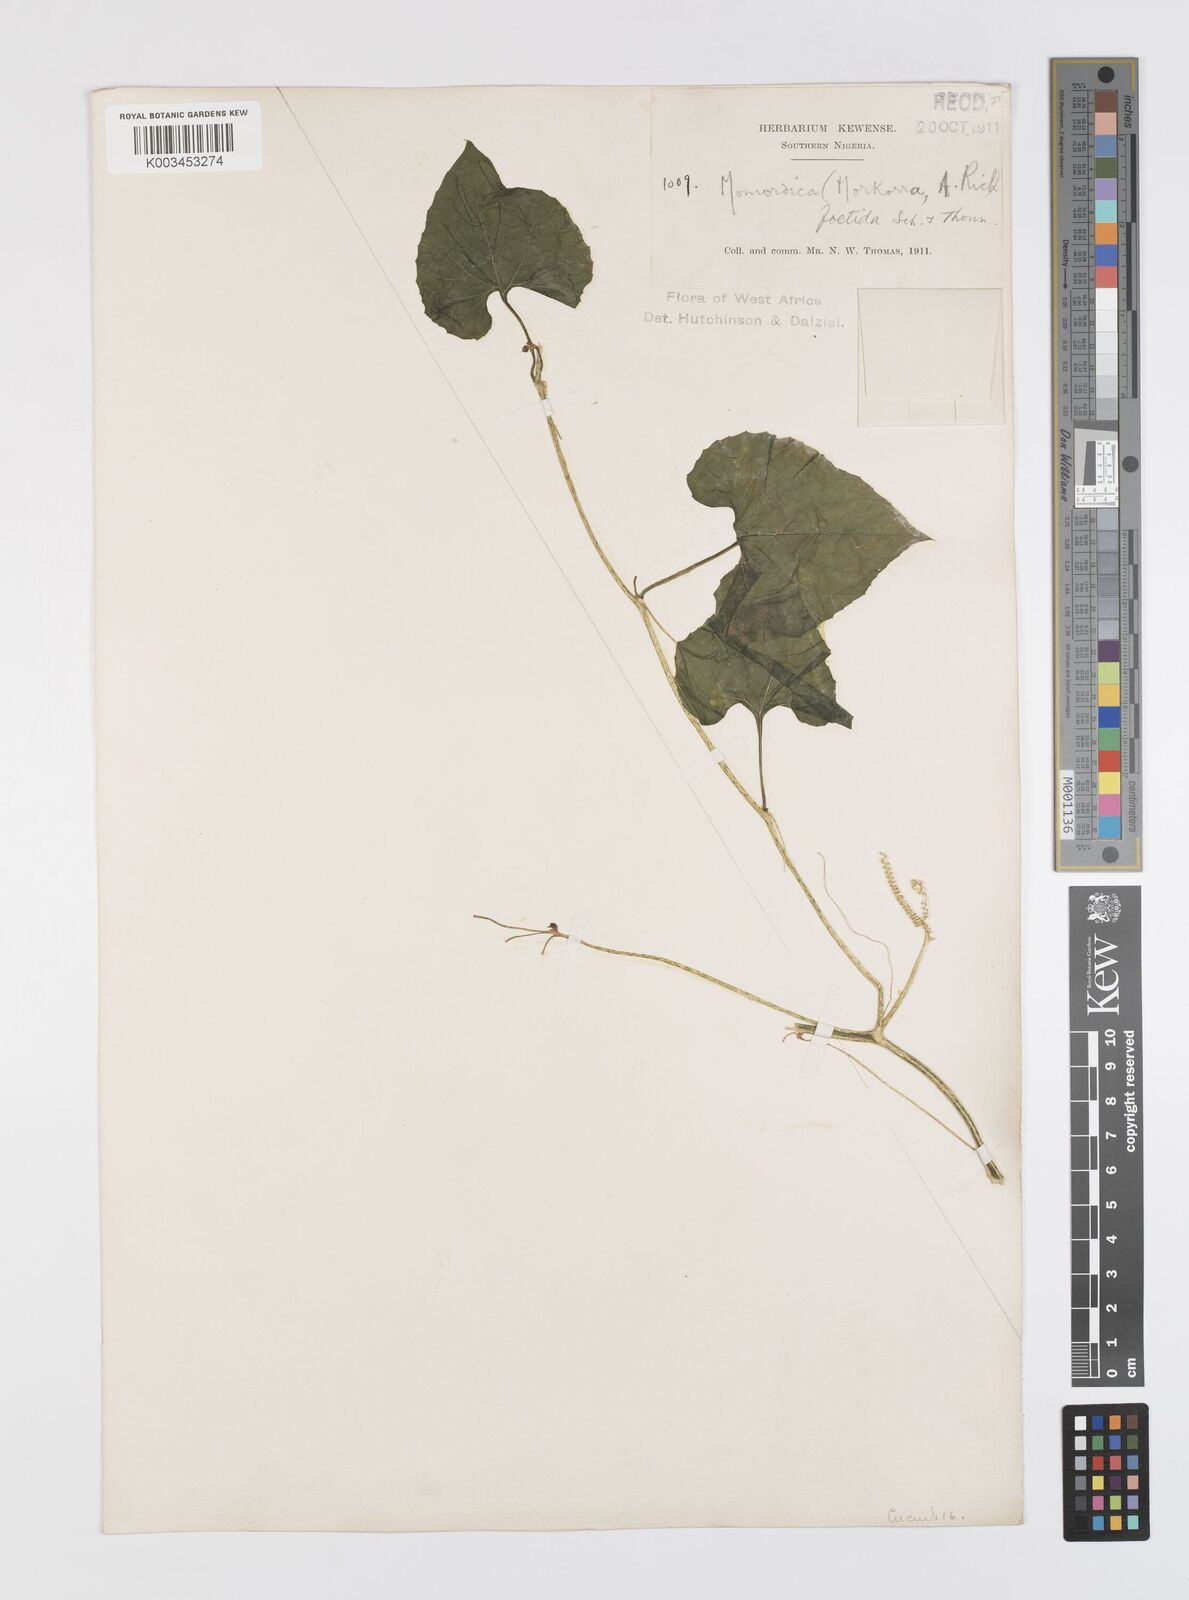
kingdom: Plantae
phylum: Tracheophyta
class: Magnoliopsida
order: Cucurbitales
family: Cucurbitaceae
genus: Momordica
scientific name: Momordica foetida
